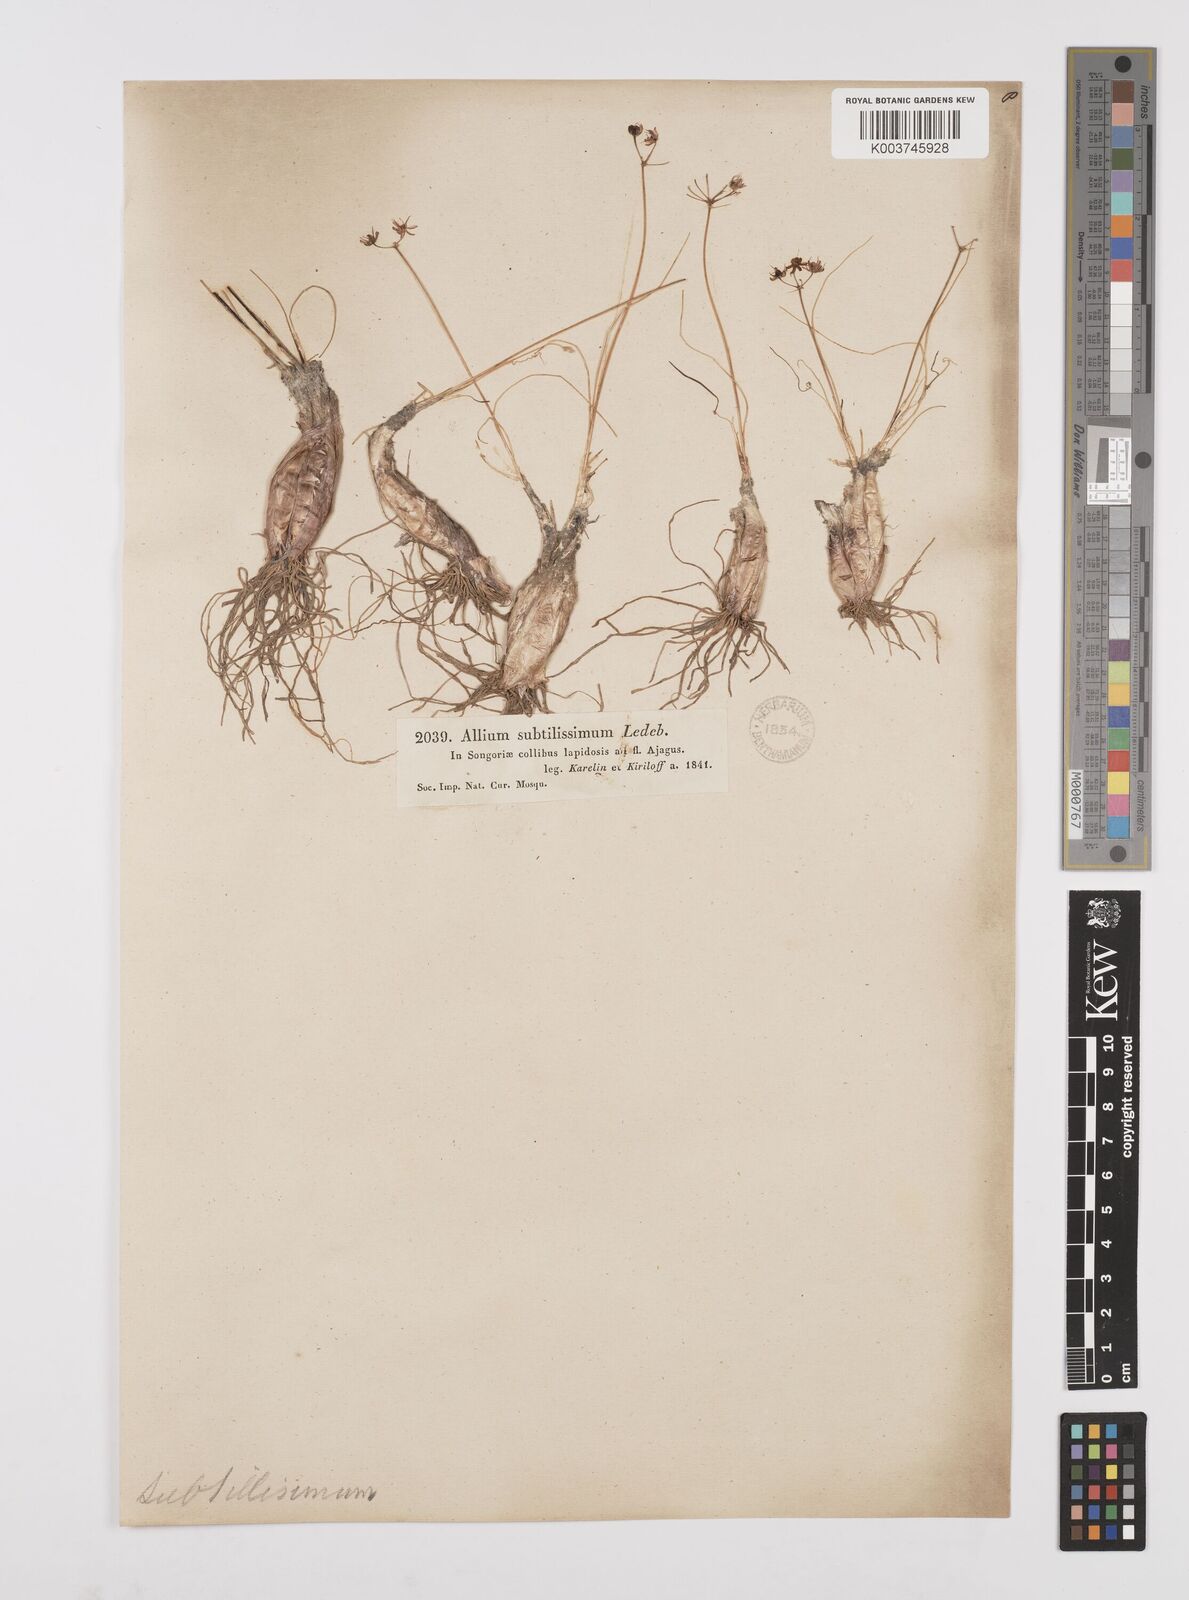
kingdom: Plantae
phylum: Tracheophyta
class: Liliopsida
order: Asparagales
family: Amaryllidaceae
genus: Allium
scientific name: Allium subtilissimum
